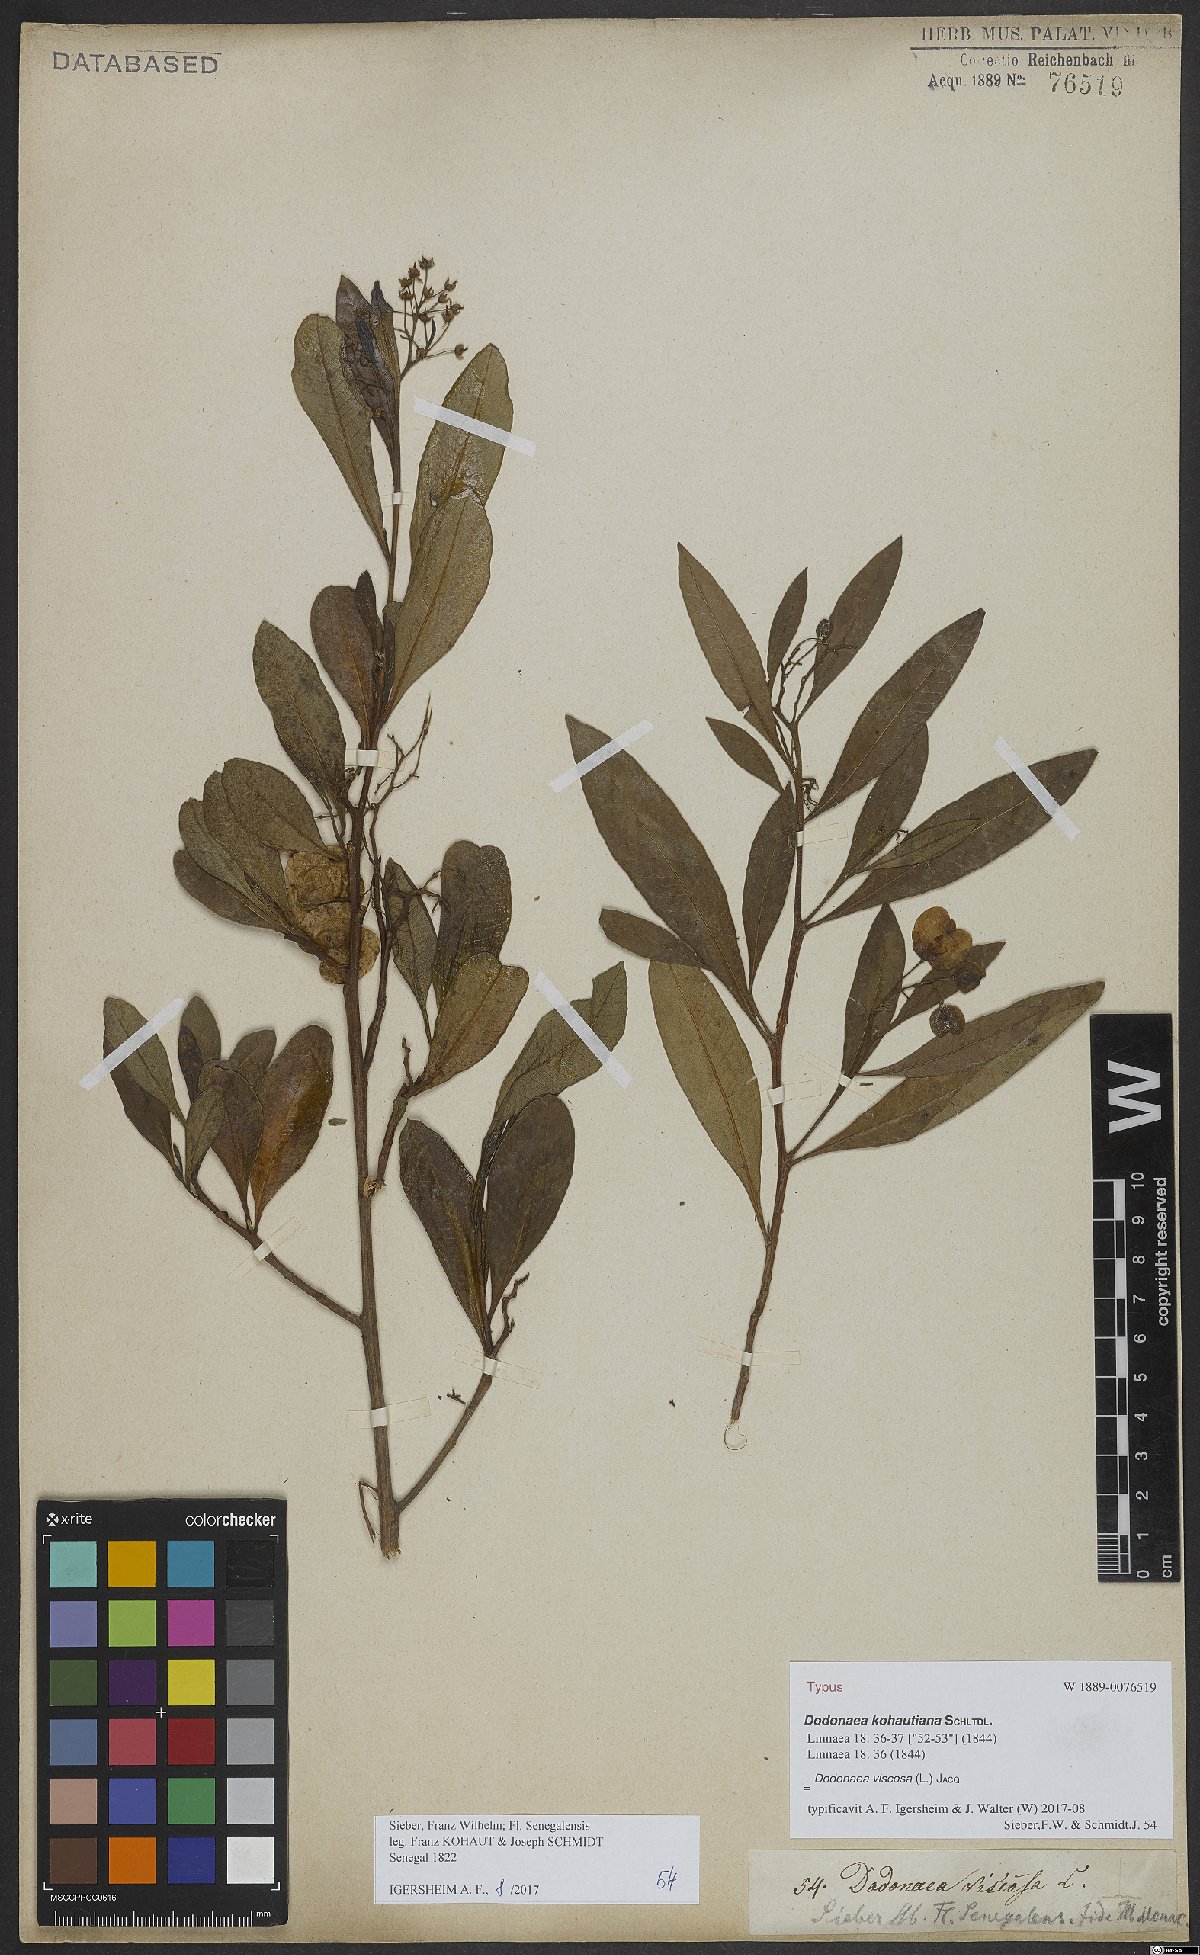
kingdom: Plantae
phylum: Tracheophyta
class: Magnoliopsida
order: Sapindales
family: Sapindaceae
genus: Dodonaea
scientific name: Dodonaea viscosa
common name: Hopbush
